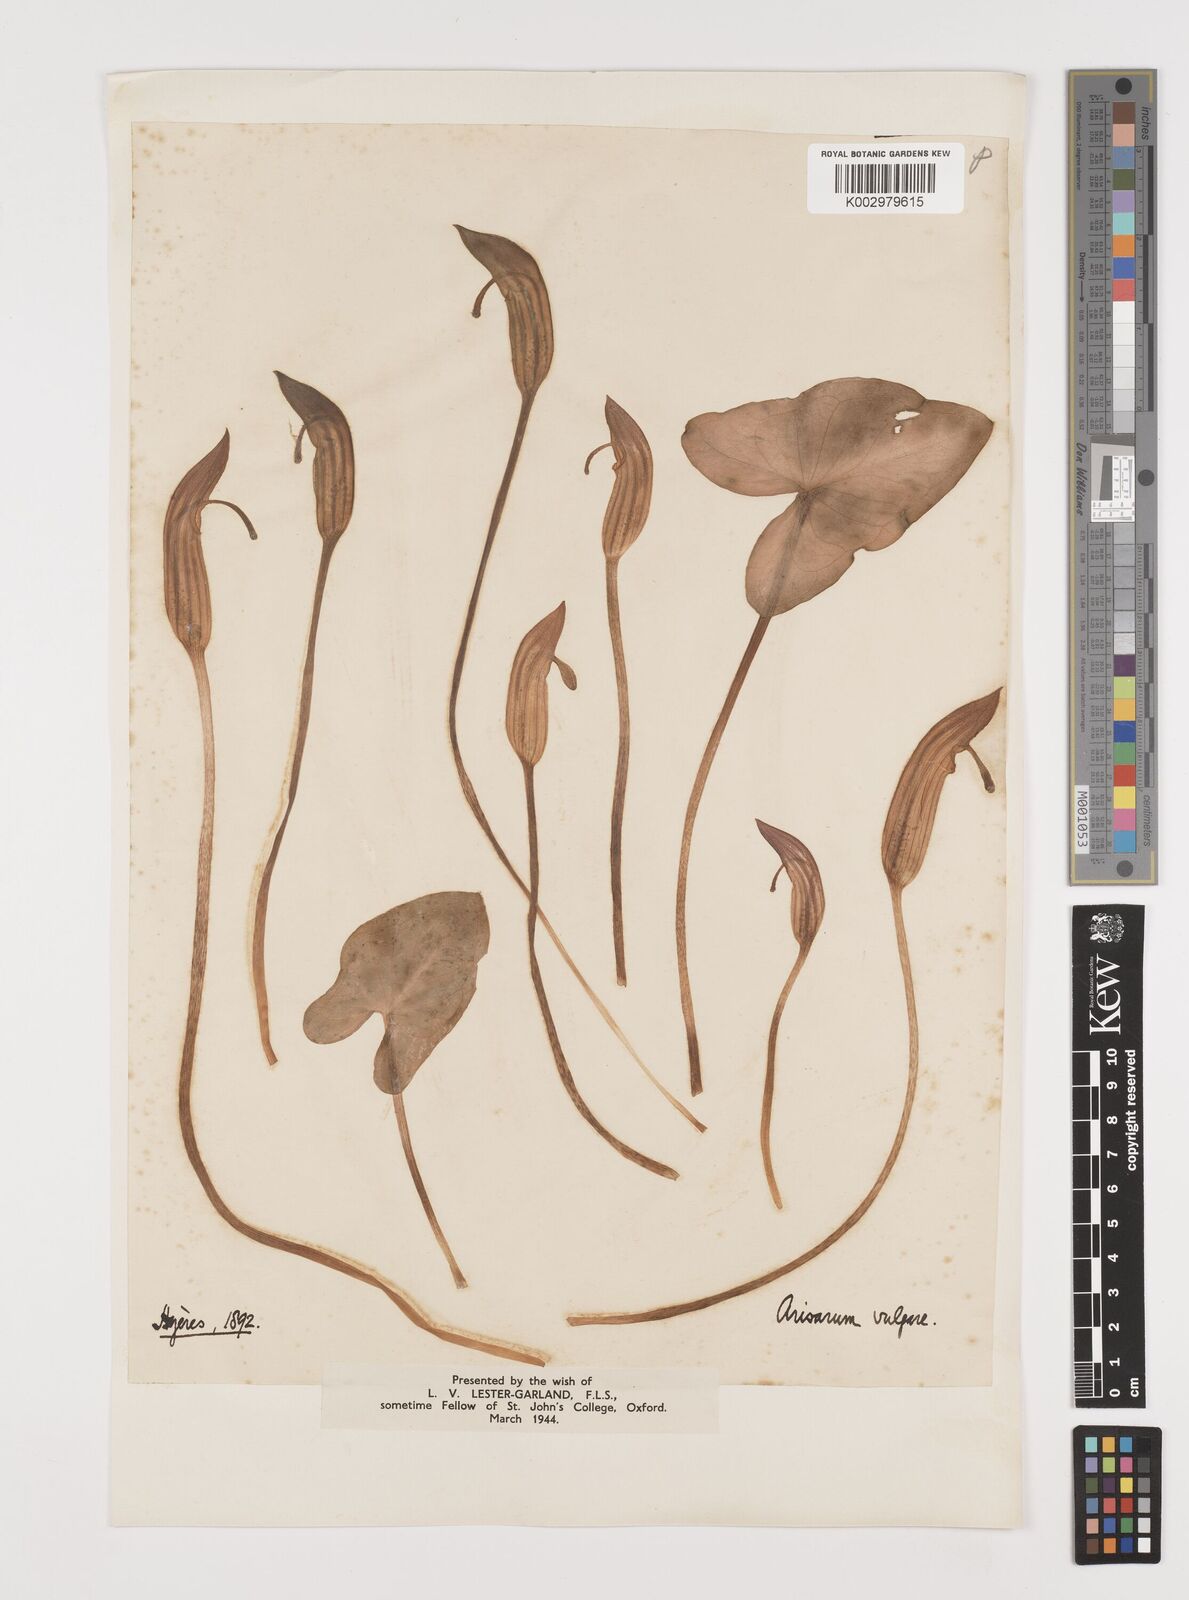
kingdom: Plantae
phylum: Tracheophyta
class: Liliopsida
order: Alismatales
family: Araceae
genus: Arisarum
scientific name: Arisarum vulgare
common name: Common arisarum
